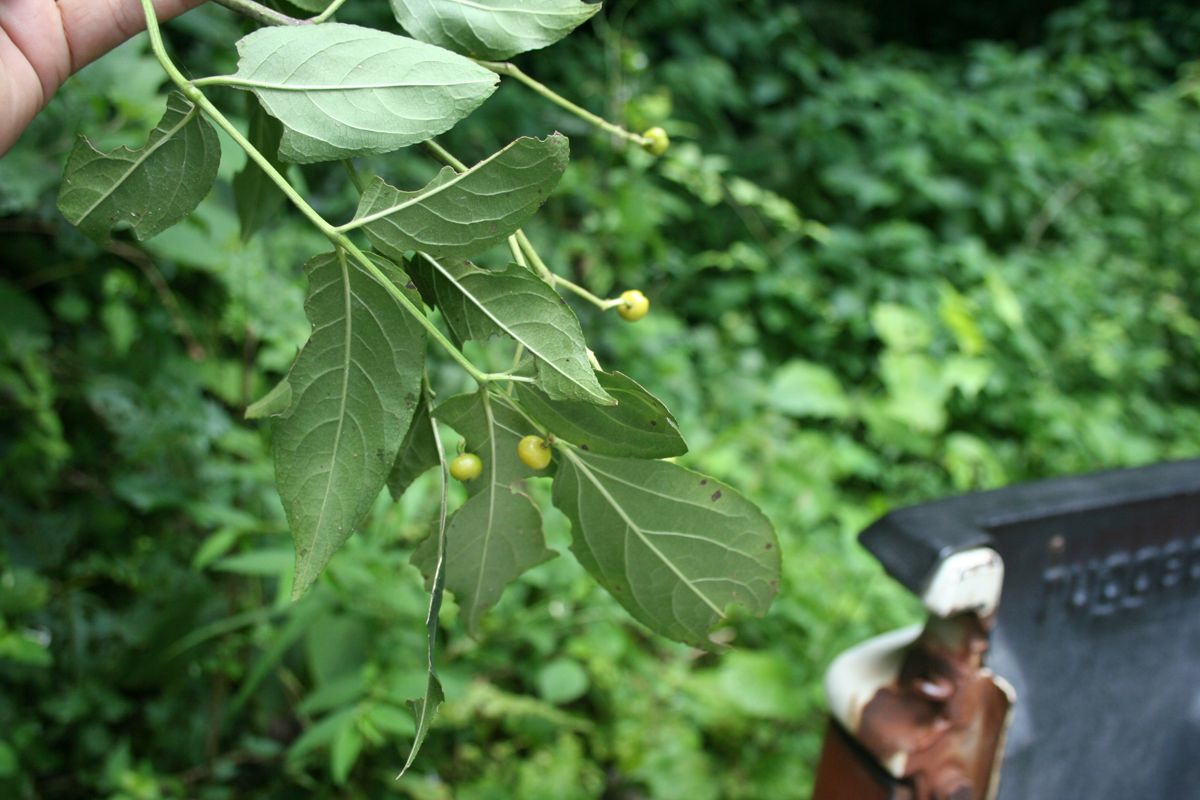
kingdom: Plantae
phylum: Tracheophyta
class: Magnoliopsida
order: Crossosomatales
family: Staphyleaceae
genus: Turpinia
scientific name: Turpinia occidentalis
